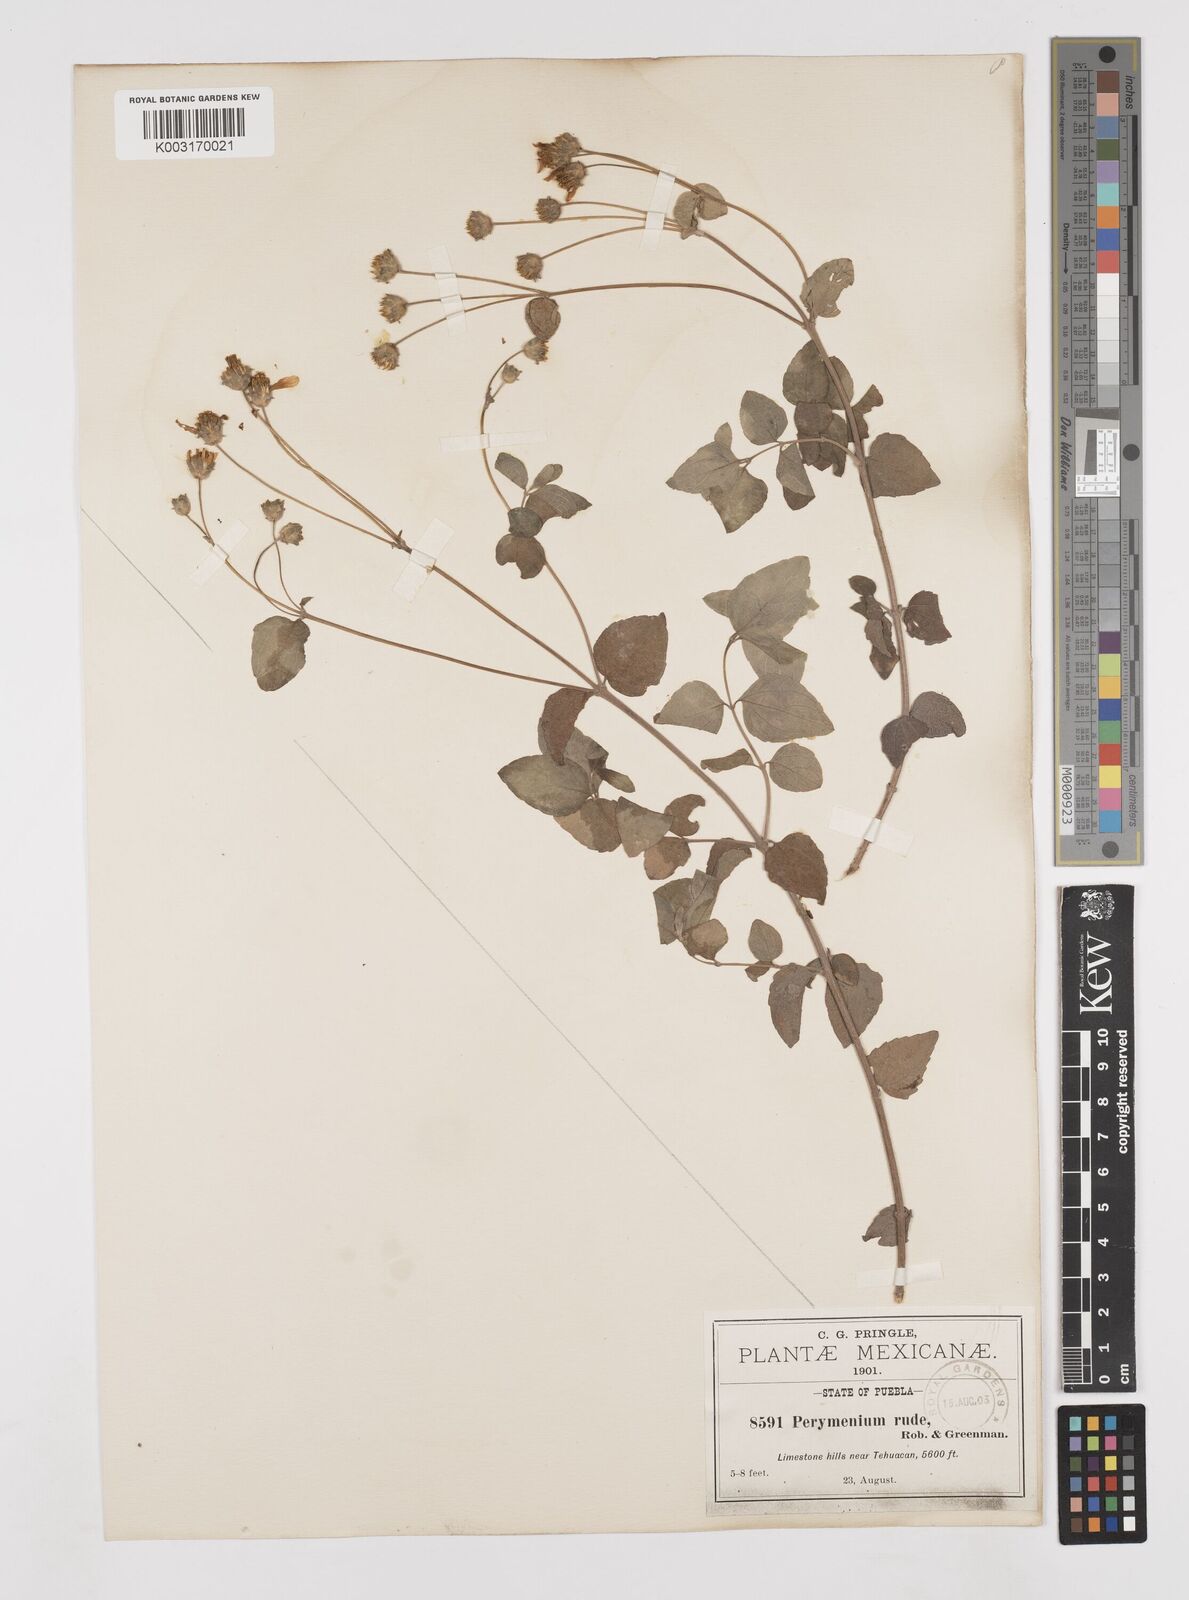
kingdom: Plantae
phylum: Tracheophyta
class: Magnoliopsida
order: Asterales
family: Asteraceae
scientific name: Asteraceae
